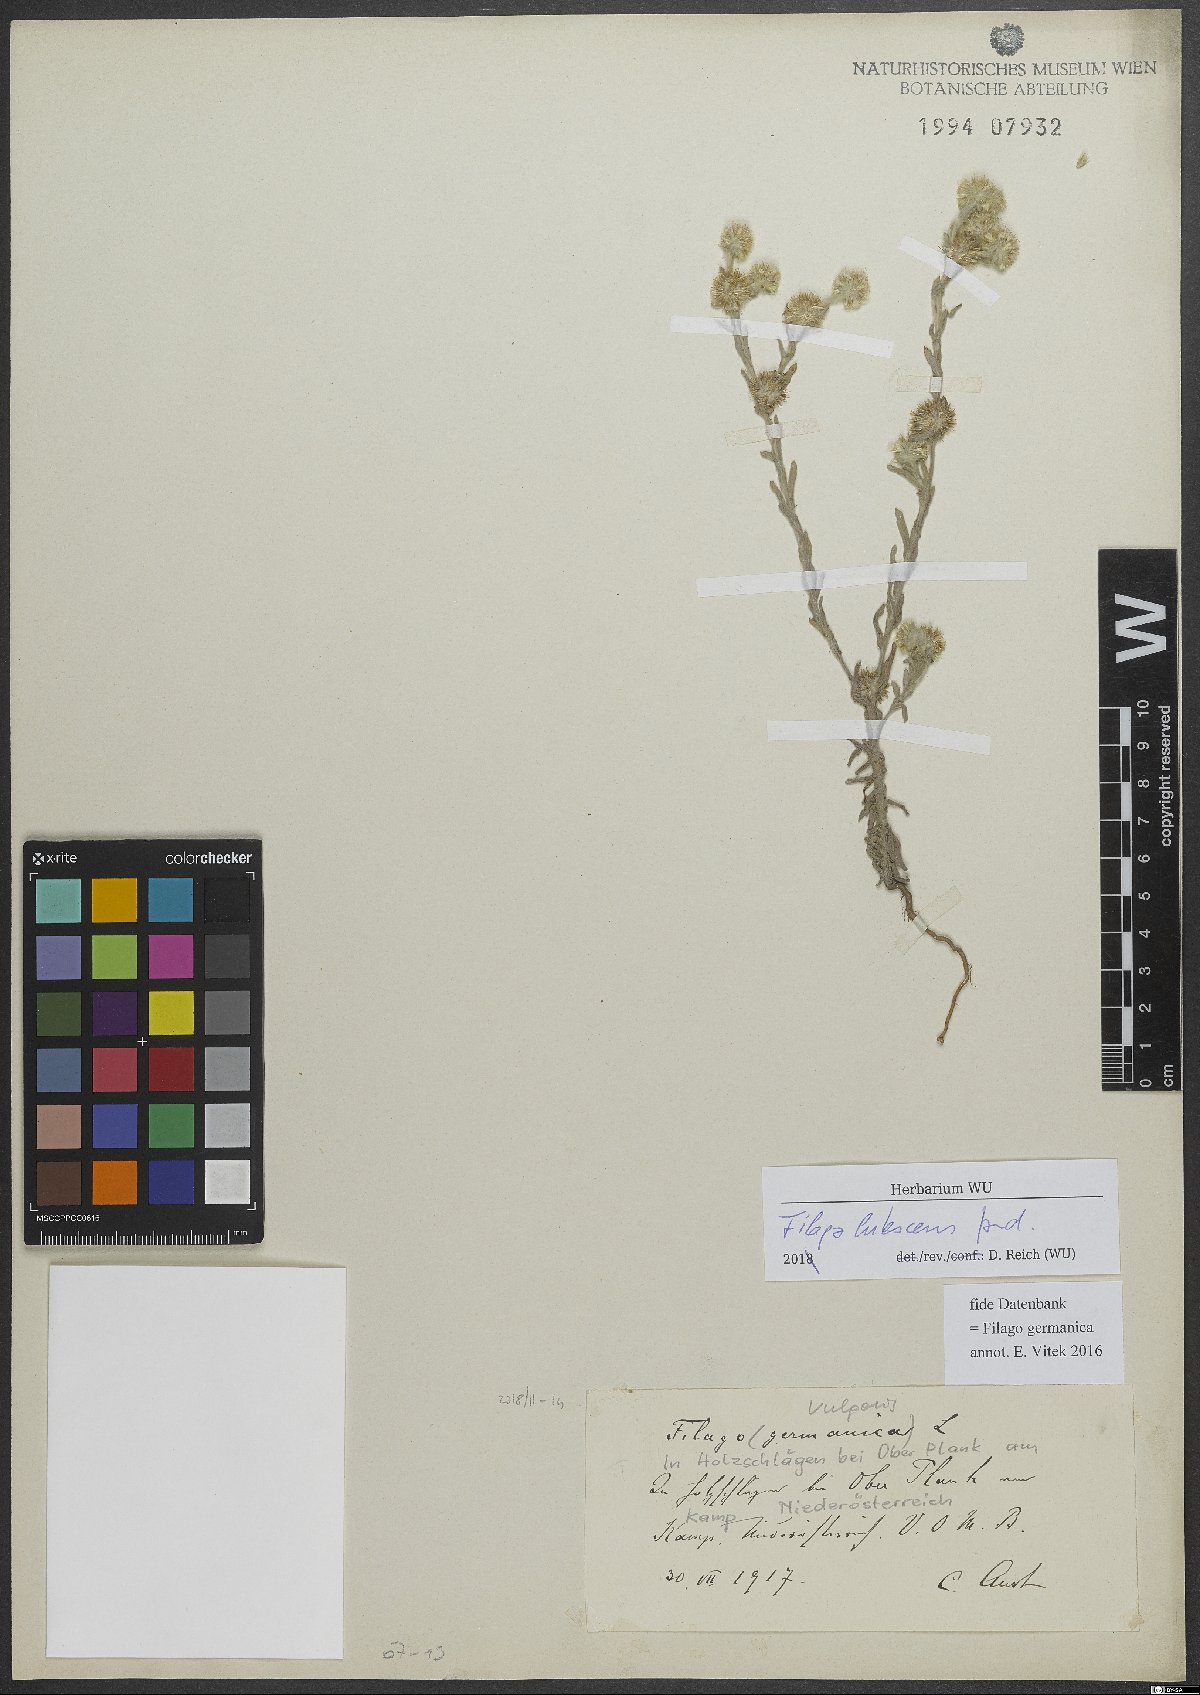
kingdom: Plantae
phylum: Tracheophyta
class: Magnoliopsida
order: Asterales
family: Asteraceae
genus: Filago
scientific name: Filago lutescens
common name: Red-tipped cudweed
